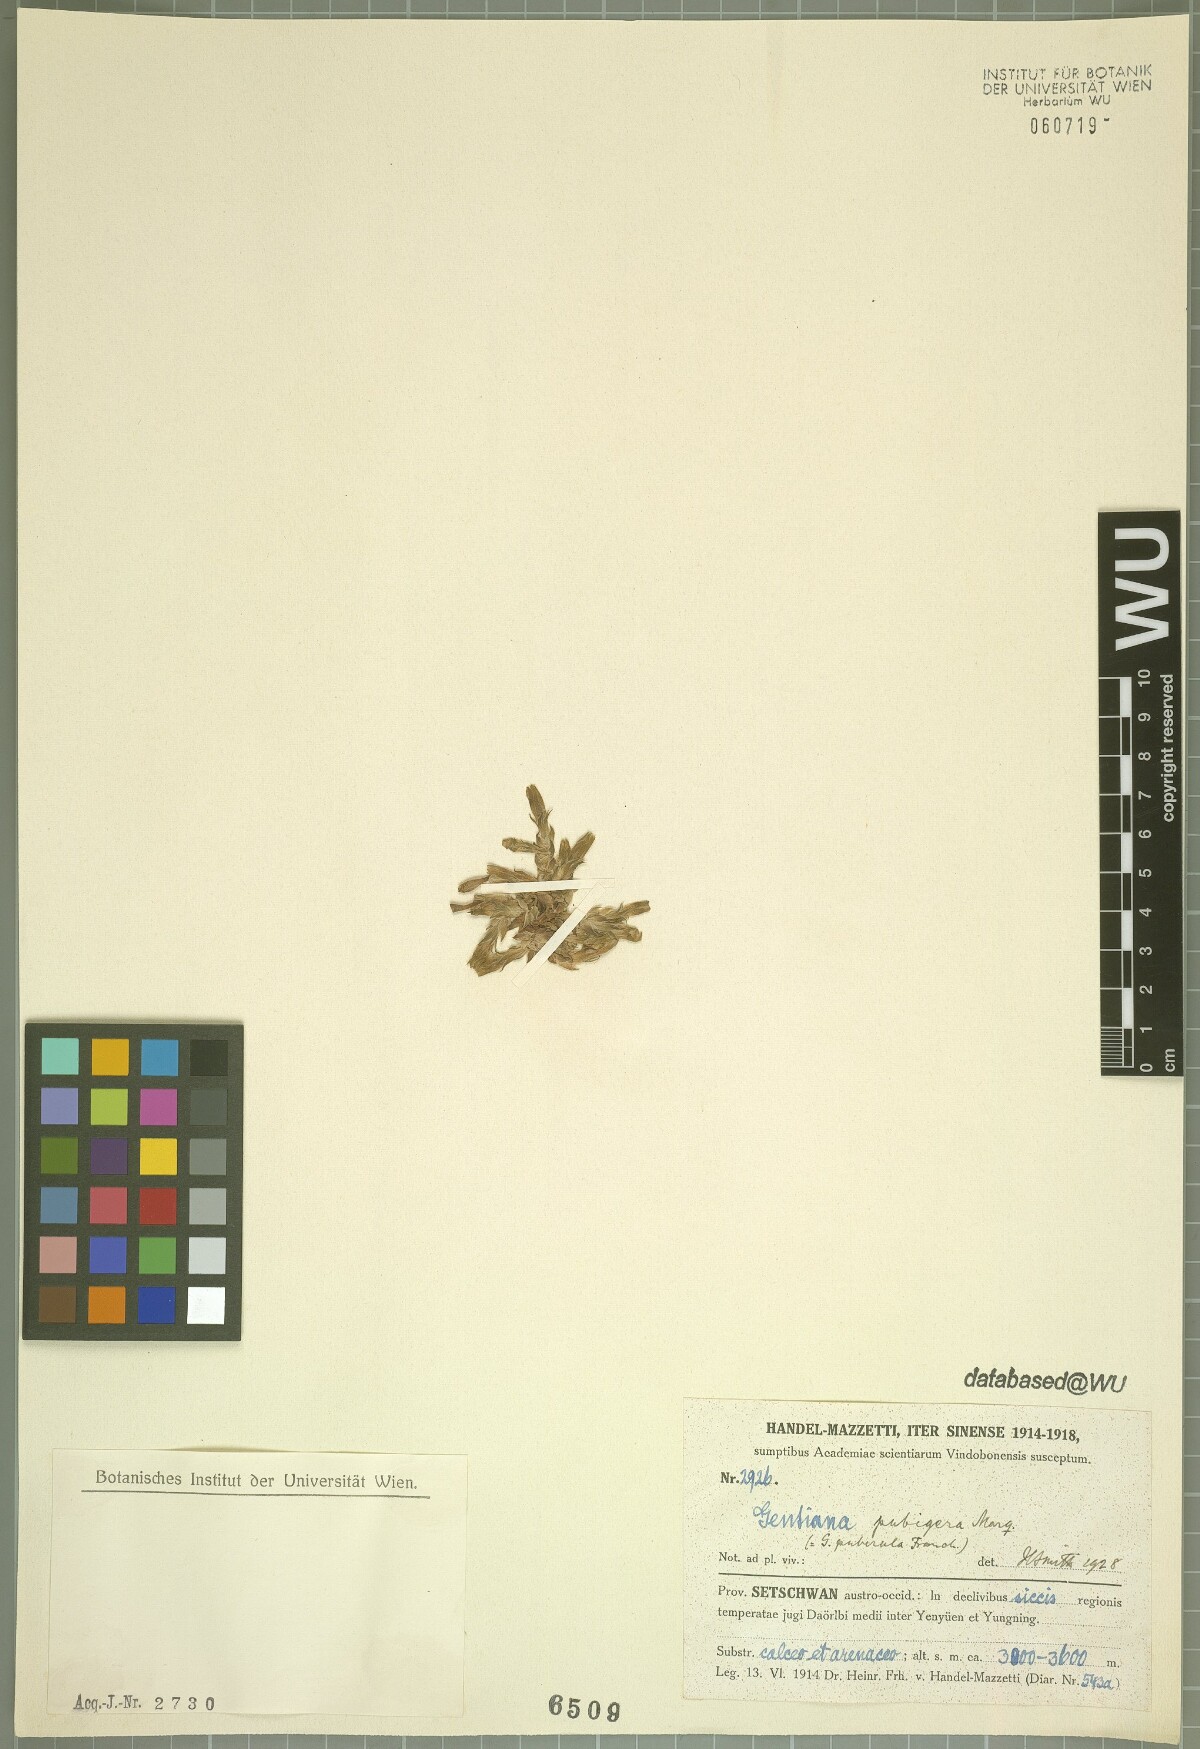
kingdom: Plantae
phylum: Tracheophyta
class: Magnoliopsida
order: Gentianales
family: Gentianaceae
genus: Gentiana
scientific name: Gentiana pubigera
